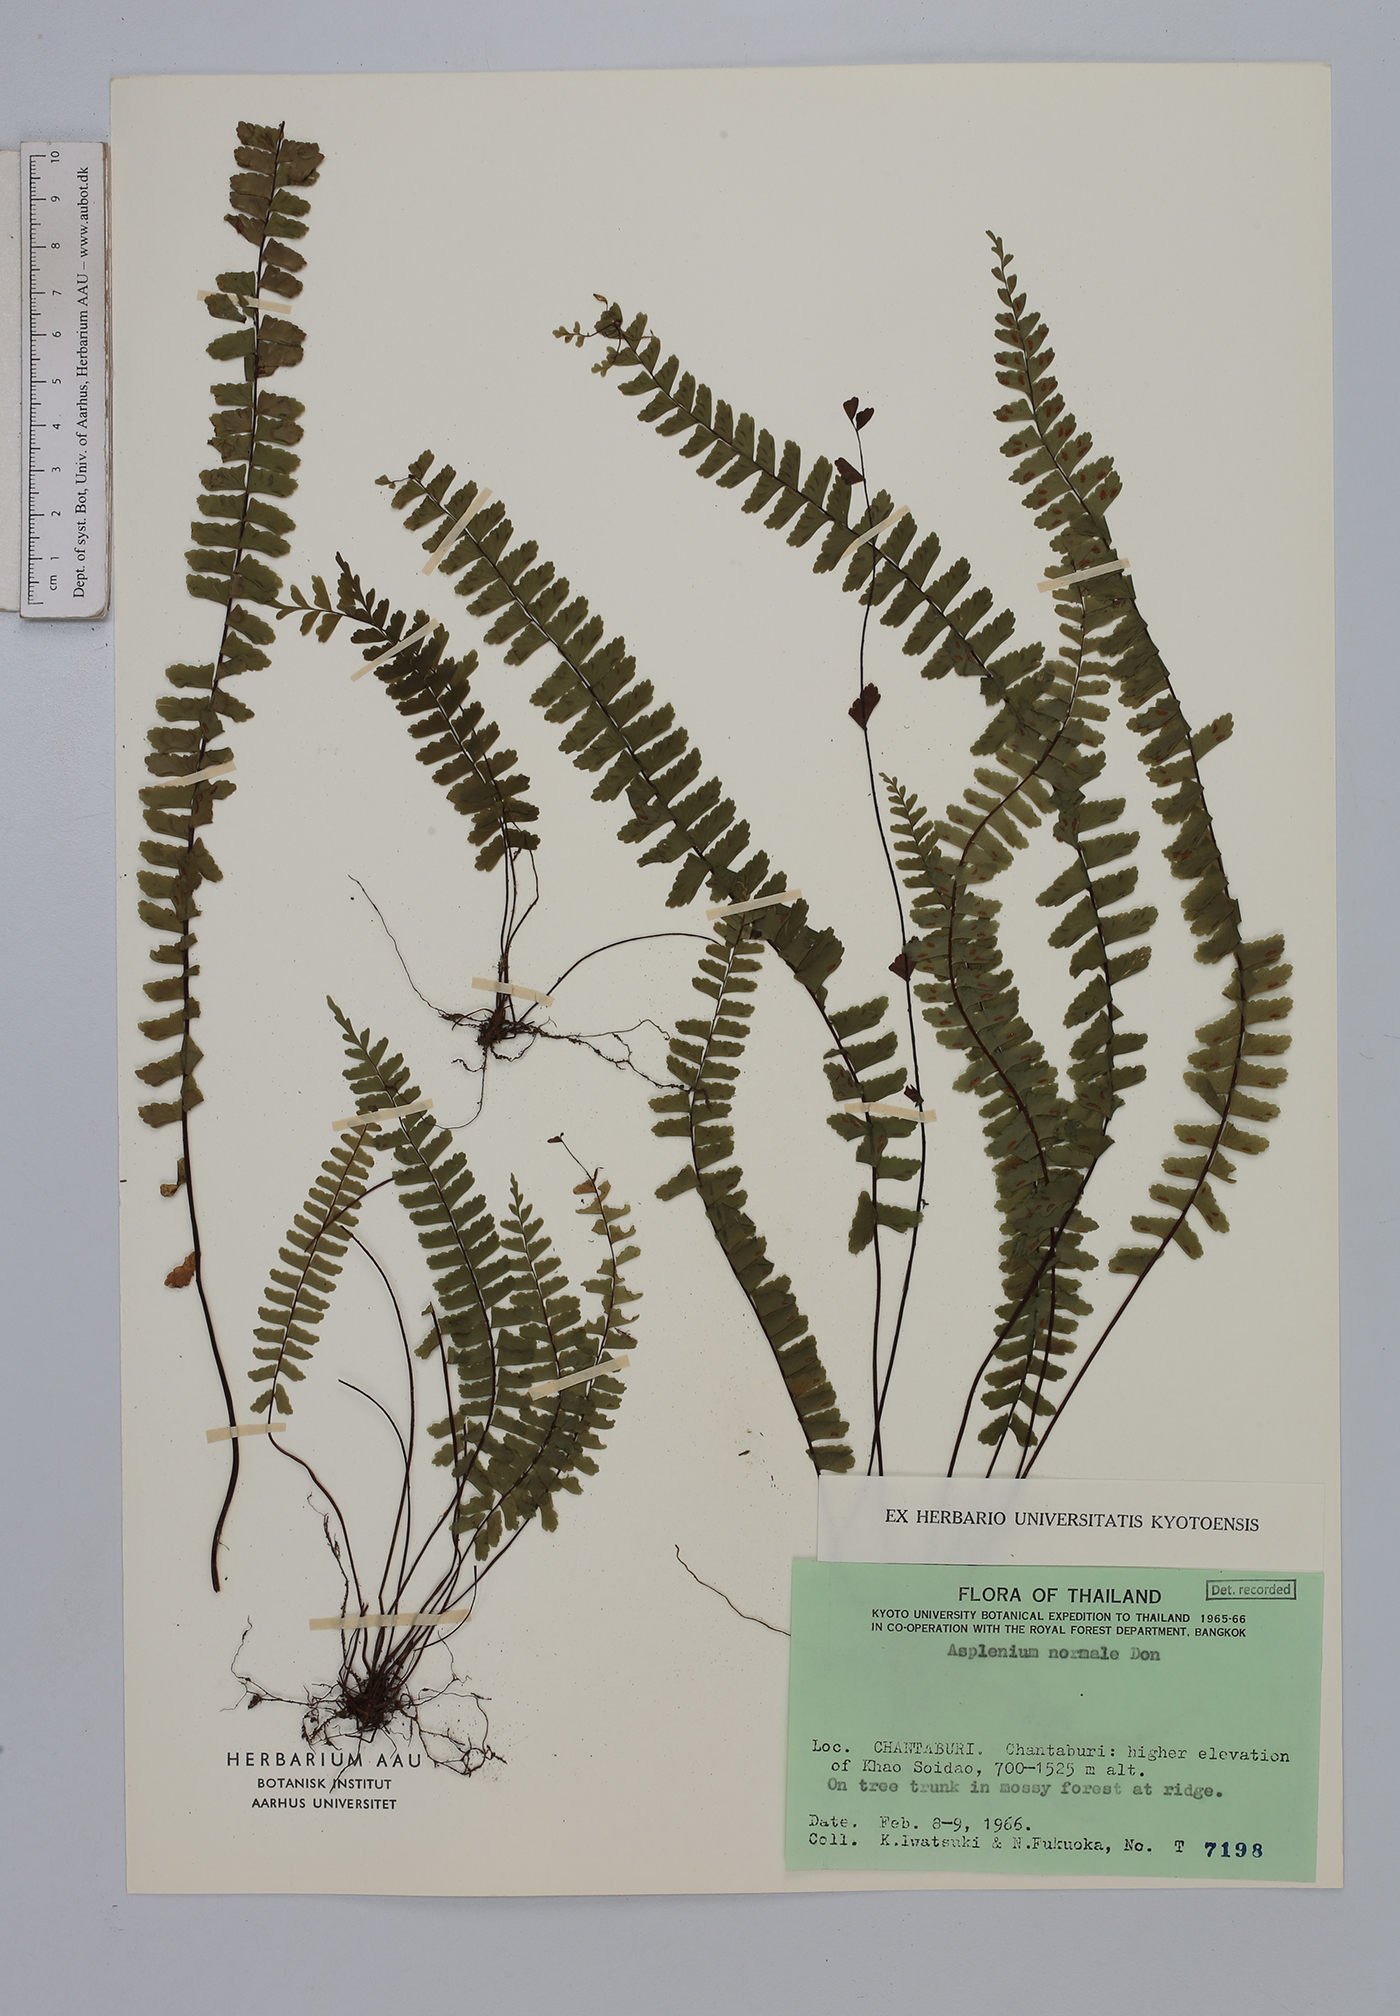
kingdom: Plantae
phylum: Tracheophyta
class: Polypodiopsida
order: Polypodiales
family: Aspleniaceae
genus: Asplenium
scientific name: Asplenium normale
